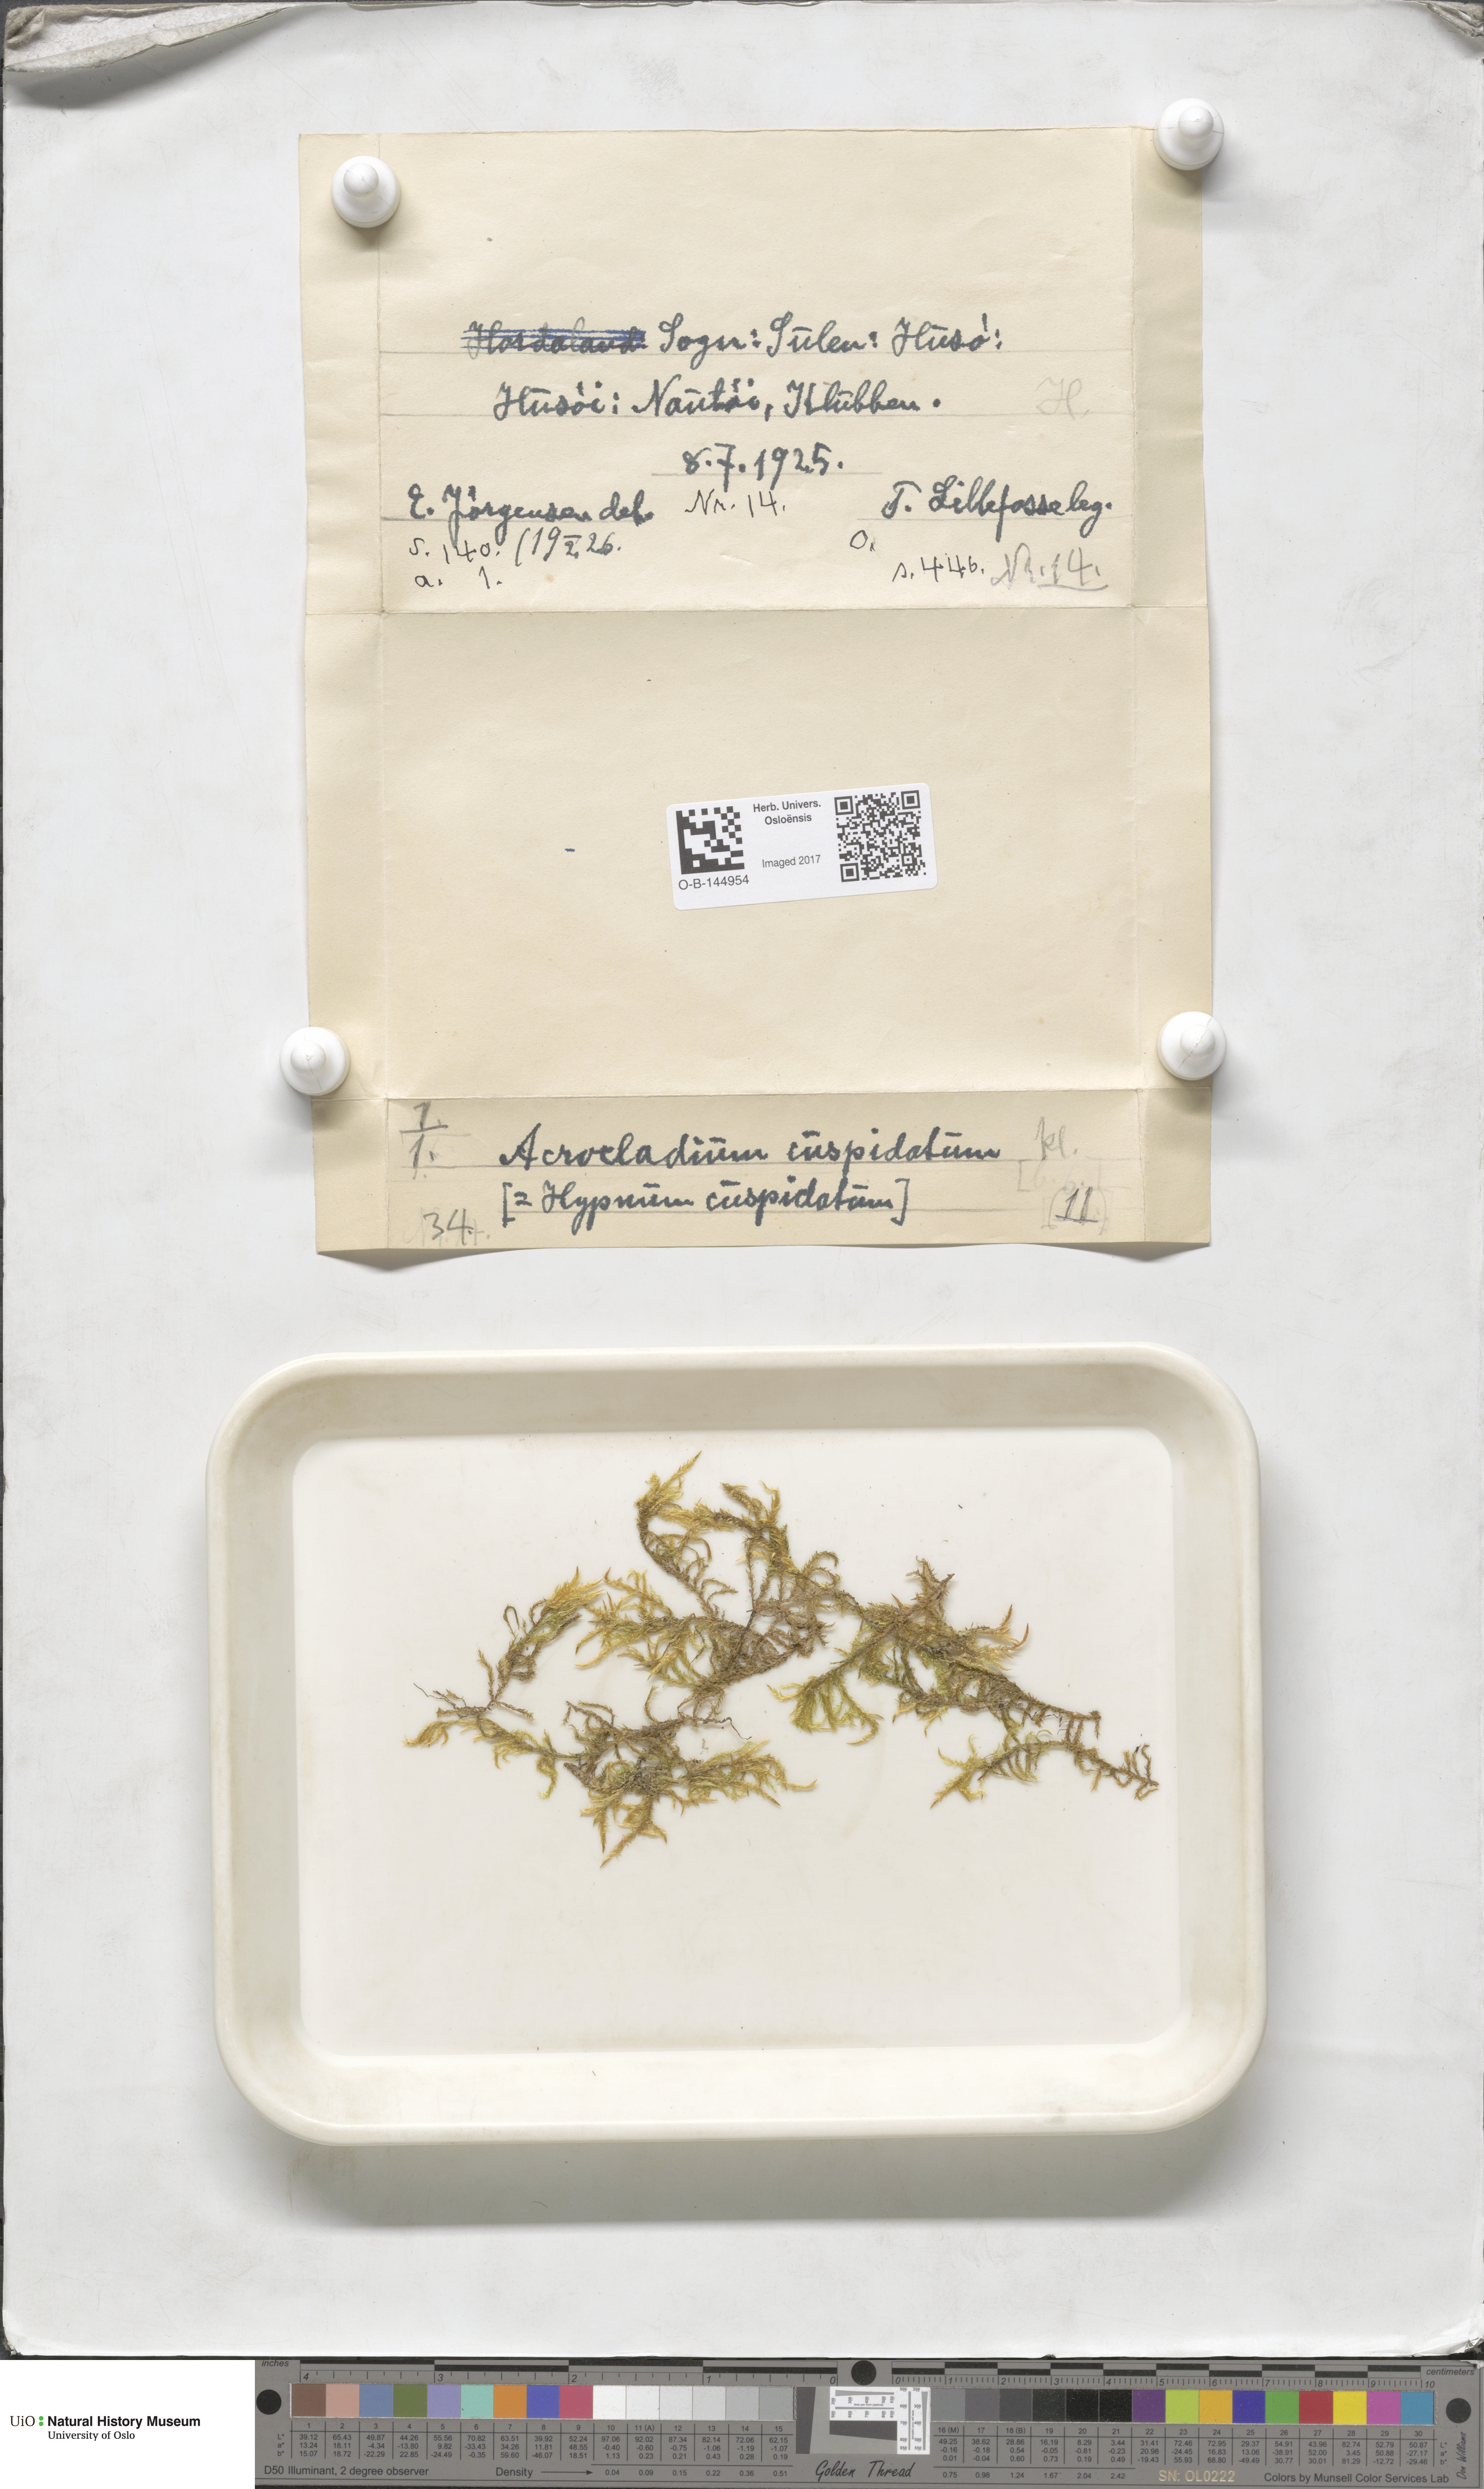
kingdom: Plantae
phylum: Bryophyta
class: Bryopsida
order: Hypnales
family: Pylaisiaceae
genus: Calliergonella
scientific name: Calliergonella cuspidata
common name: Common large wetland moss
